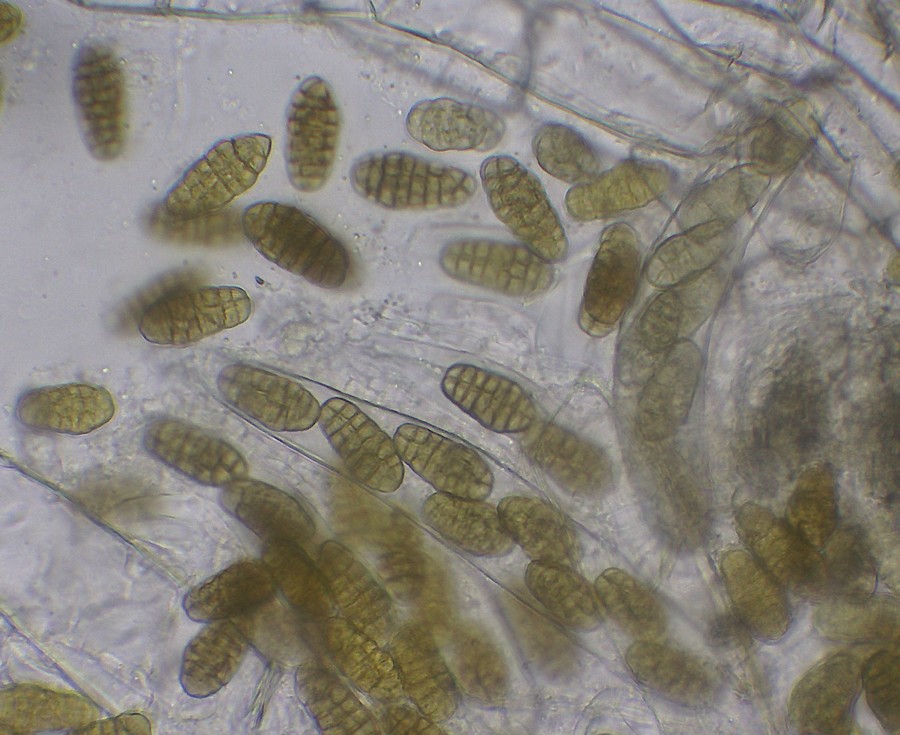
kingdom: Fungi
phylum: Ascomycota
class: Dothideomycetes
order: Pleosporales
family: Pleosporaceae
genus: Stemphylium
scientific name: Stemphylium vesicarium
